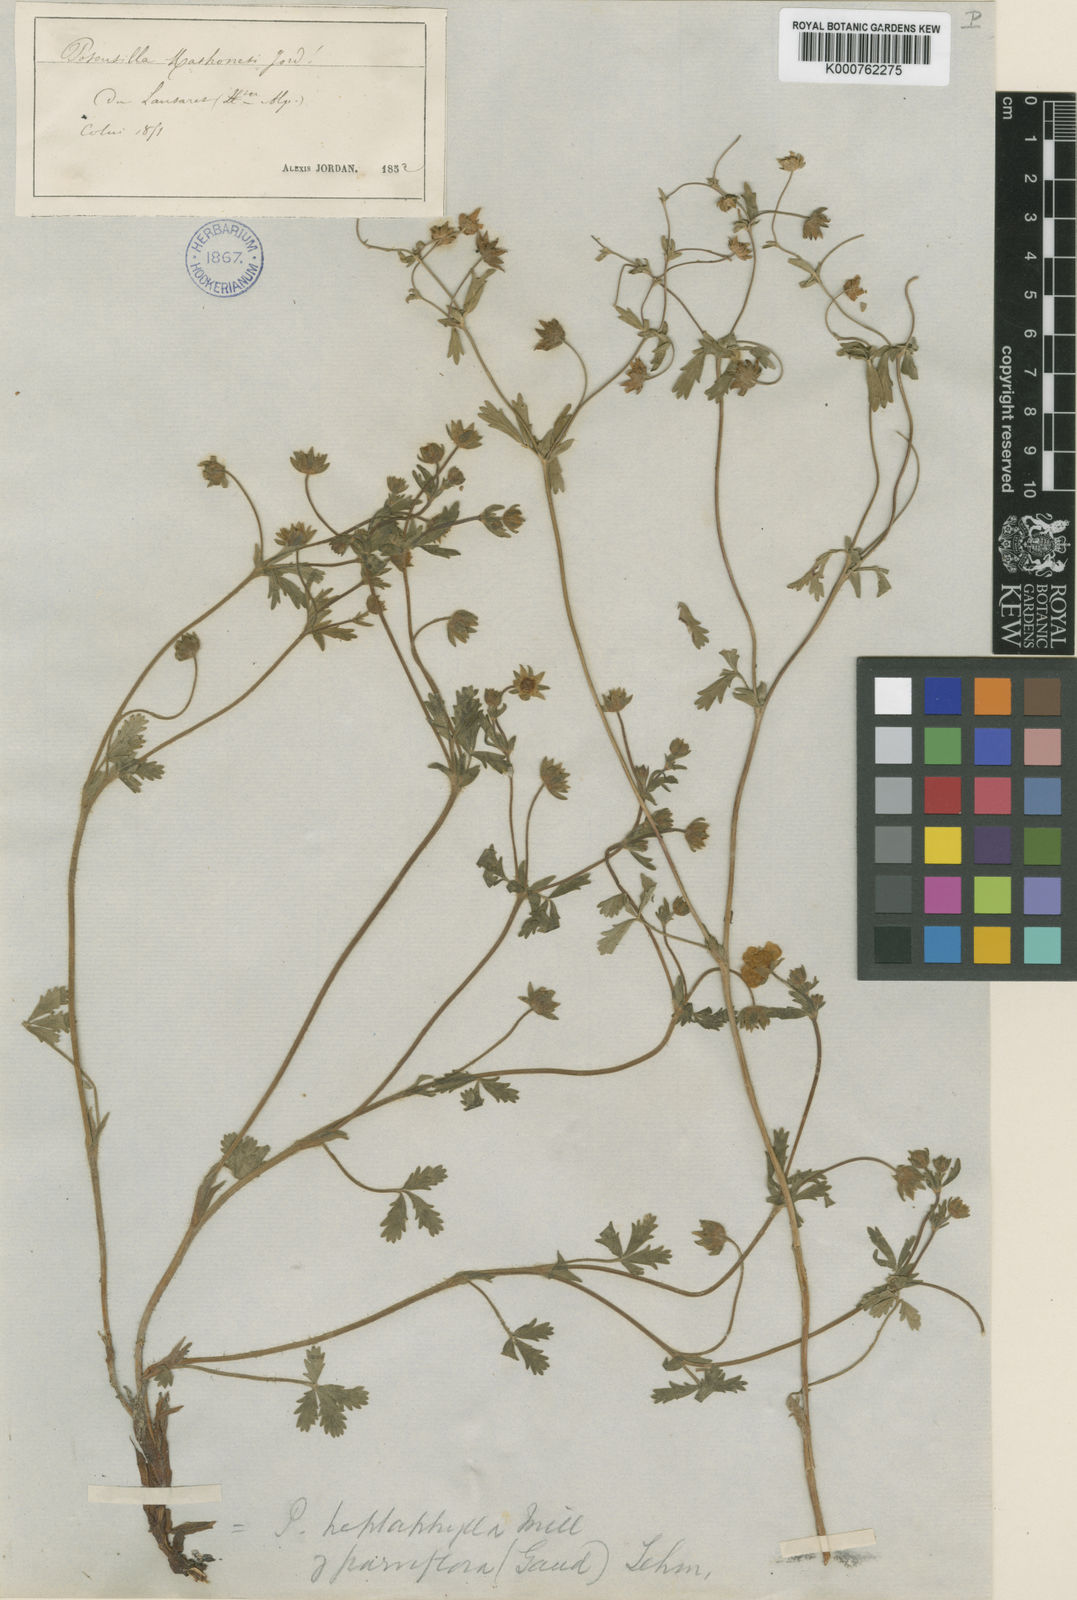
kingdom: Plantae
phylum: Tracheophyta
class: Magnoliopsida
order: Rosales
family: Rosaceae
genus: Potentilla
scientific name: Potentilla thuringiaca
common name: European cinquefoil
